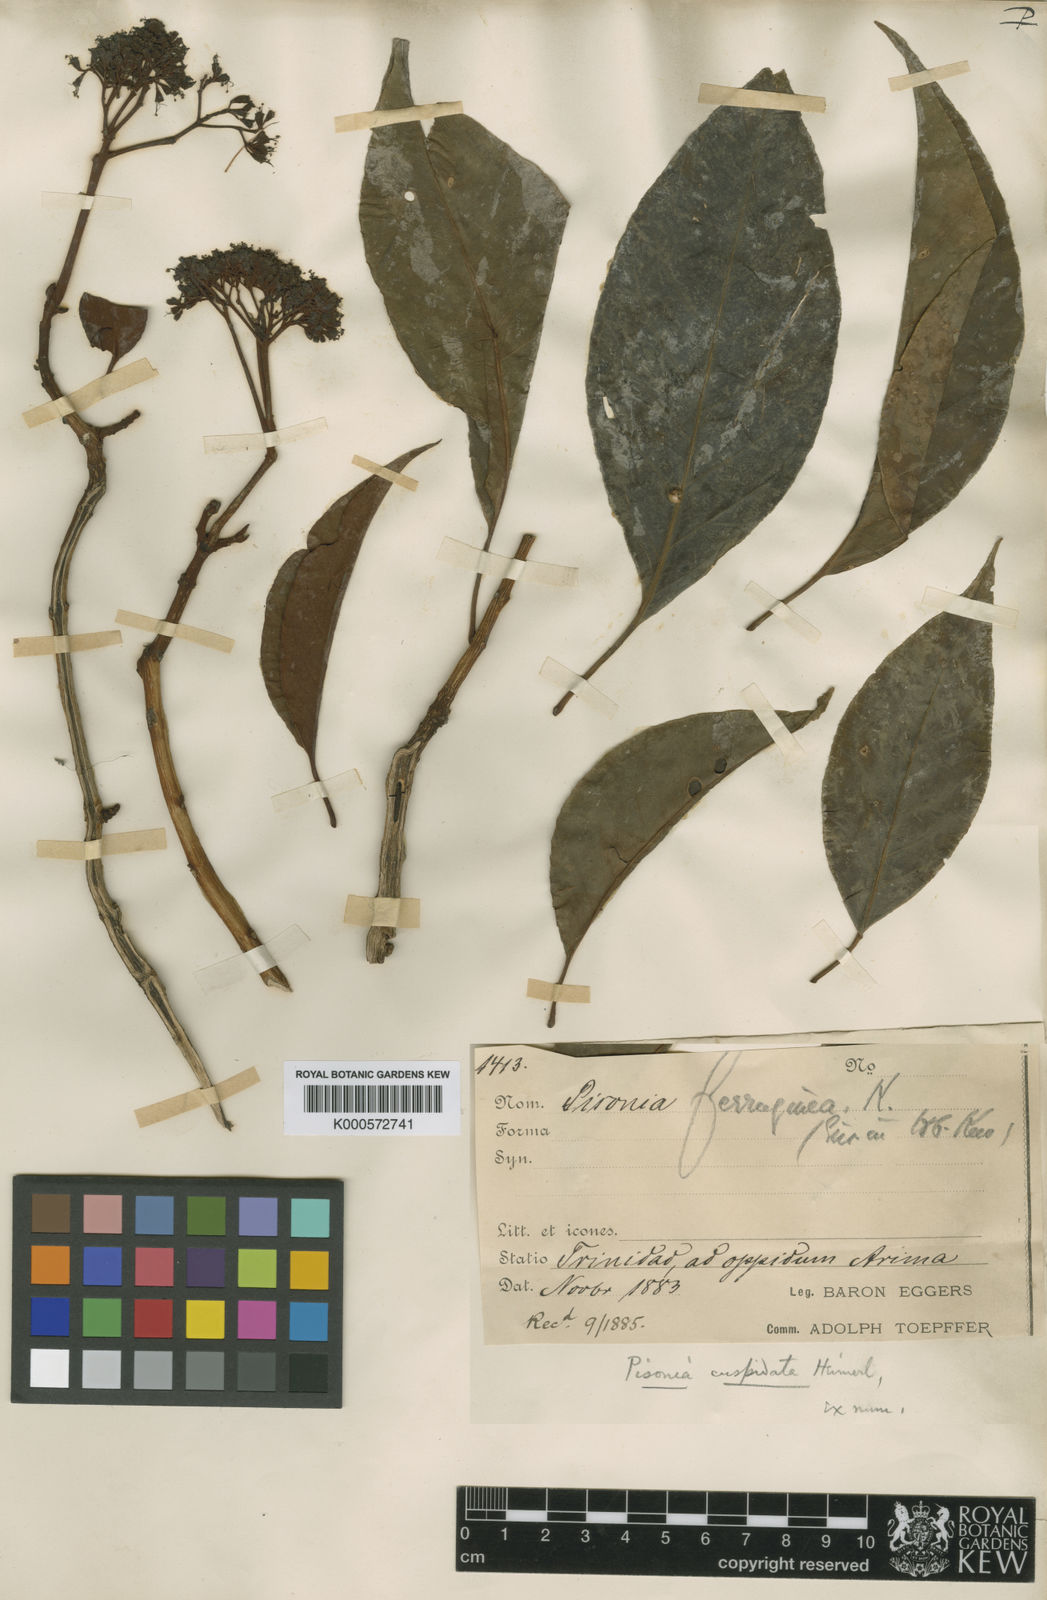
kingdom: Plantae
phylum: Tracheophyta
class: Magnoliopsida
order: Caryophyllales
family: Nyctaginaceae
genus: Guapira
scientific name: Guapira cuspidata
